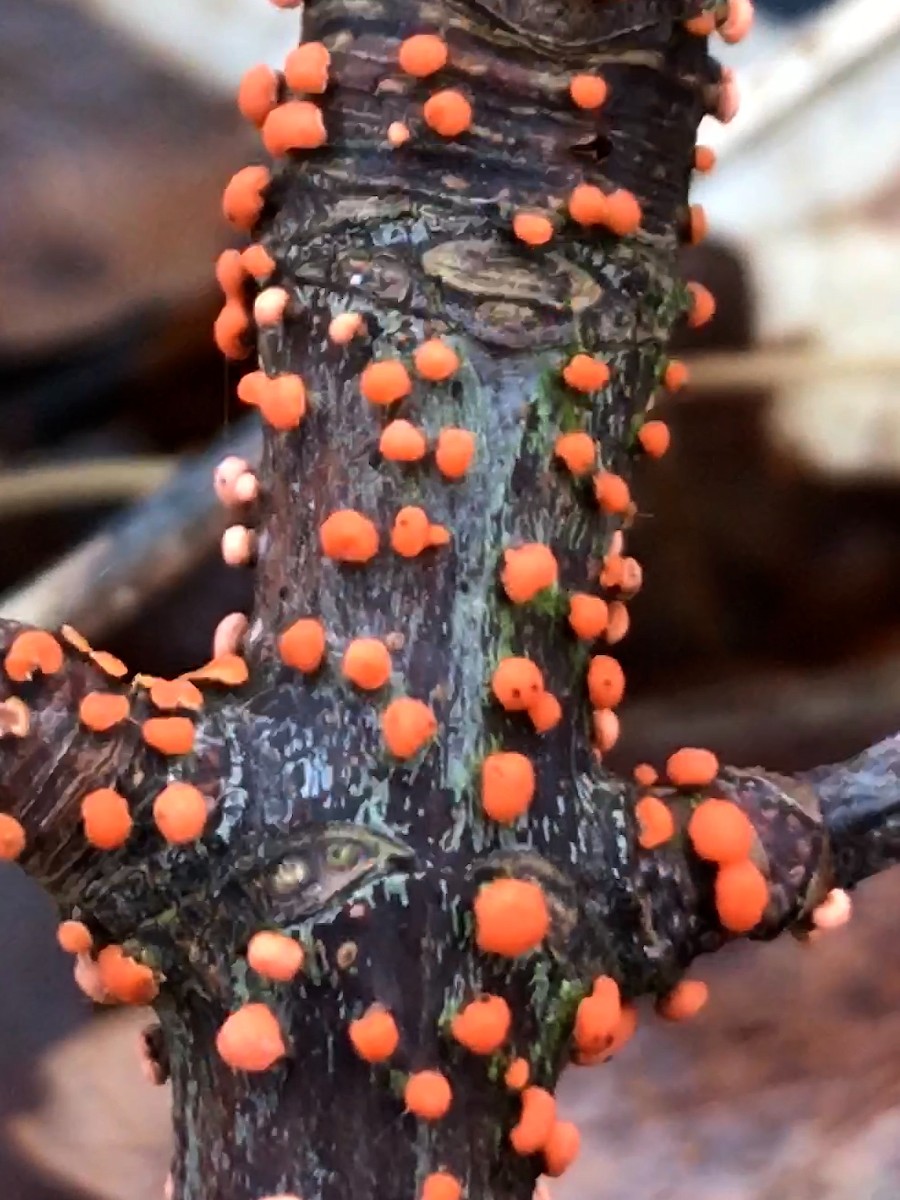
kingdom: Fungi
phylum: Ascomycota
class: Sordariomycetes
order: Hypocreales
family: Nectriaceae
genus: Nectria
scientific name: Nectria cinnabarina
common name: almindelig cinnobersvamp
